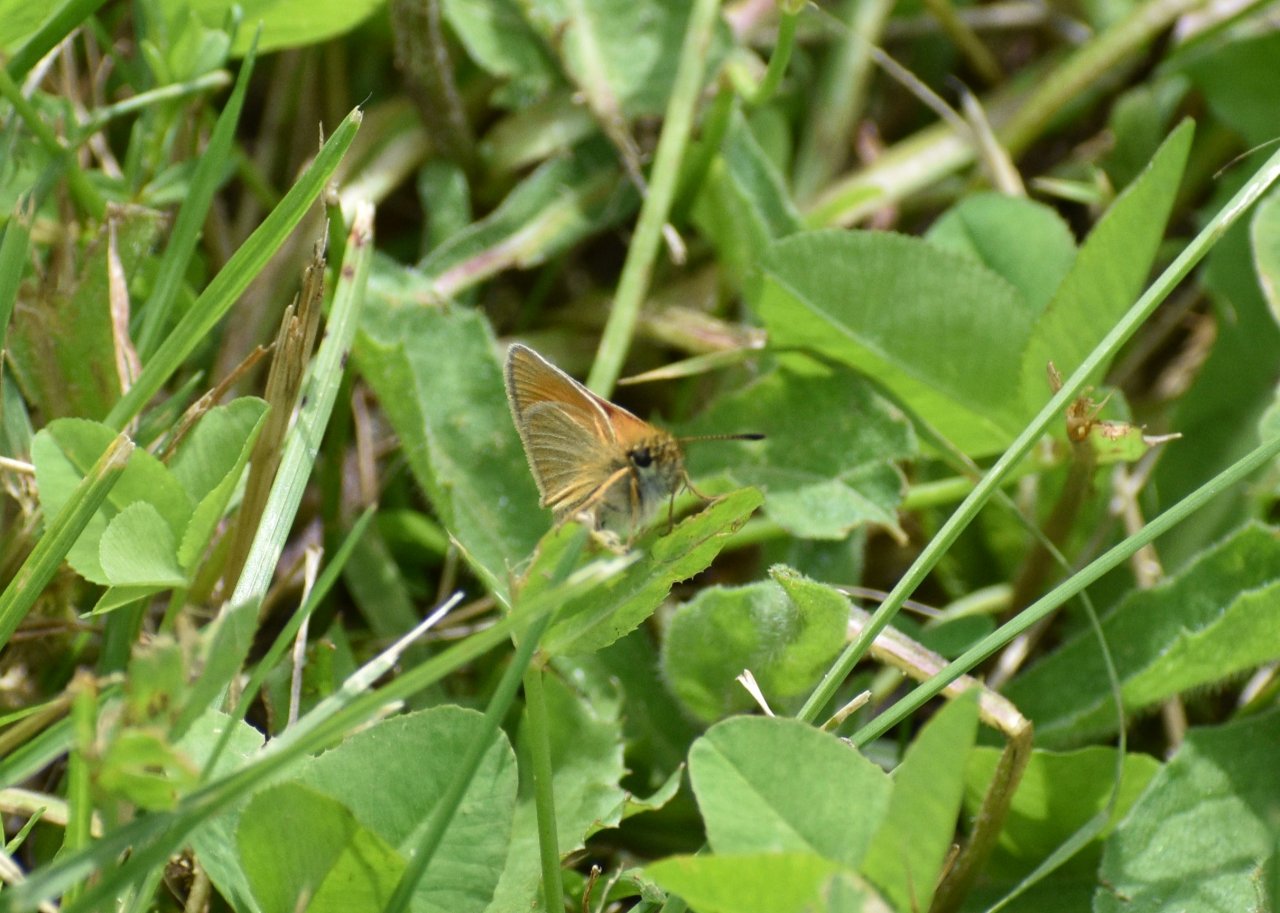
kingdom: Animalia
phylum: Arthropoda
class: Insecta
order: Lepidoptera
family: Hesperiidae
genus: Thymelicus
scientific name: Thymelicus lineola
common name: European Skipper
